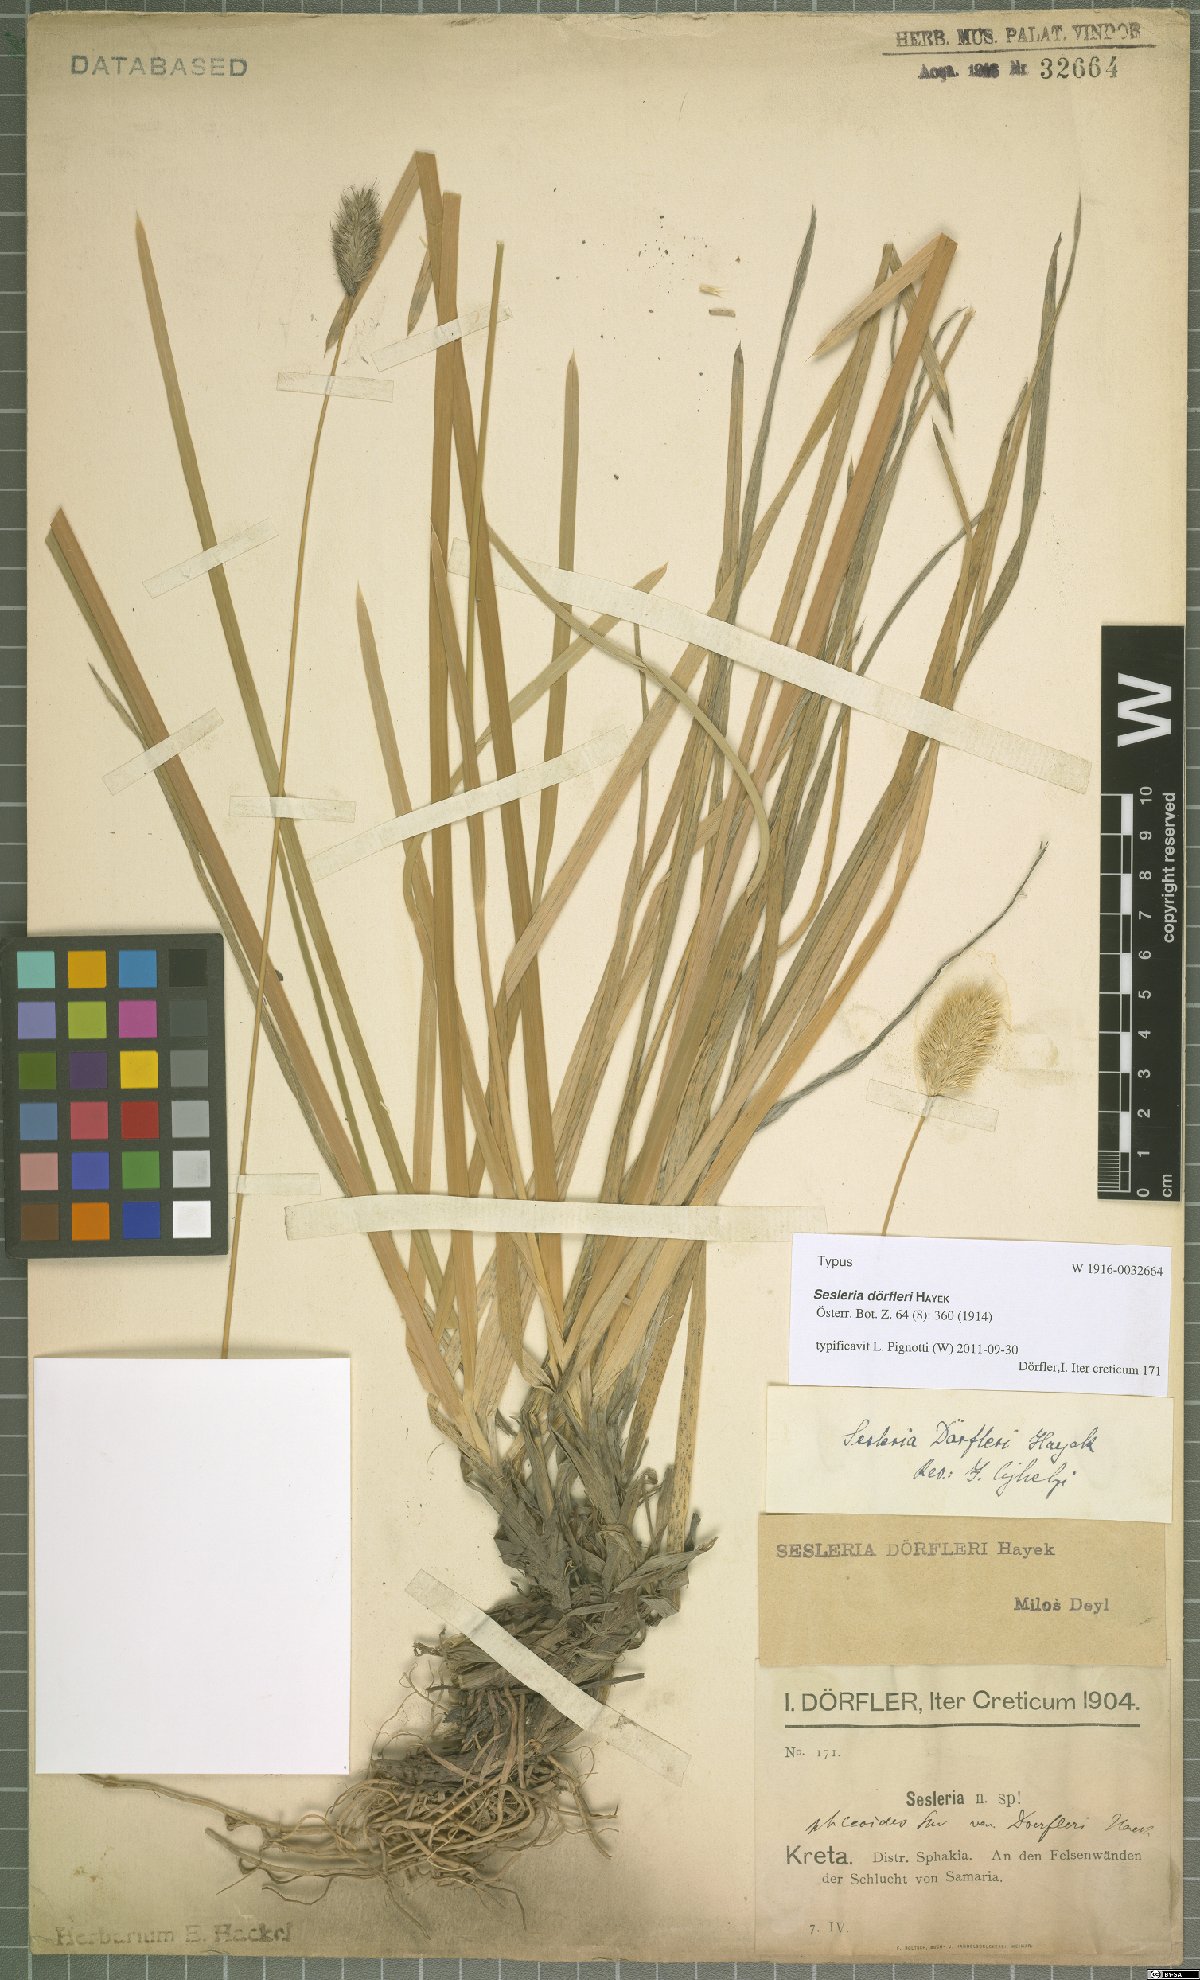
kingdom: Plantae
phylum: Tracheophyta
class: Liliopsida
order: Poales
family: Poaceae
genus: Sesleria
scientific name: Sesleria doerfleri
